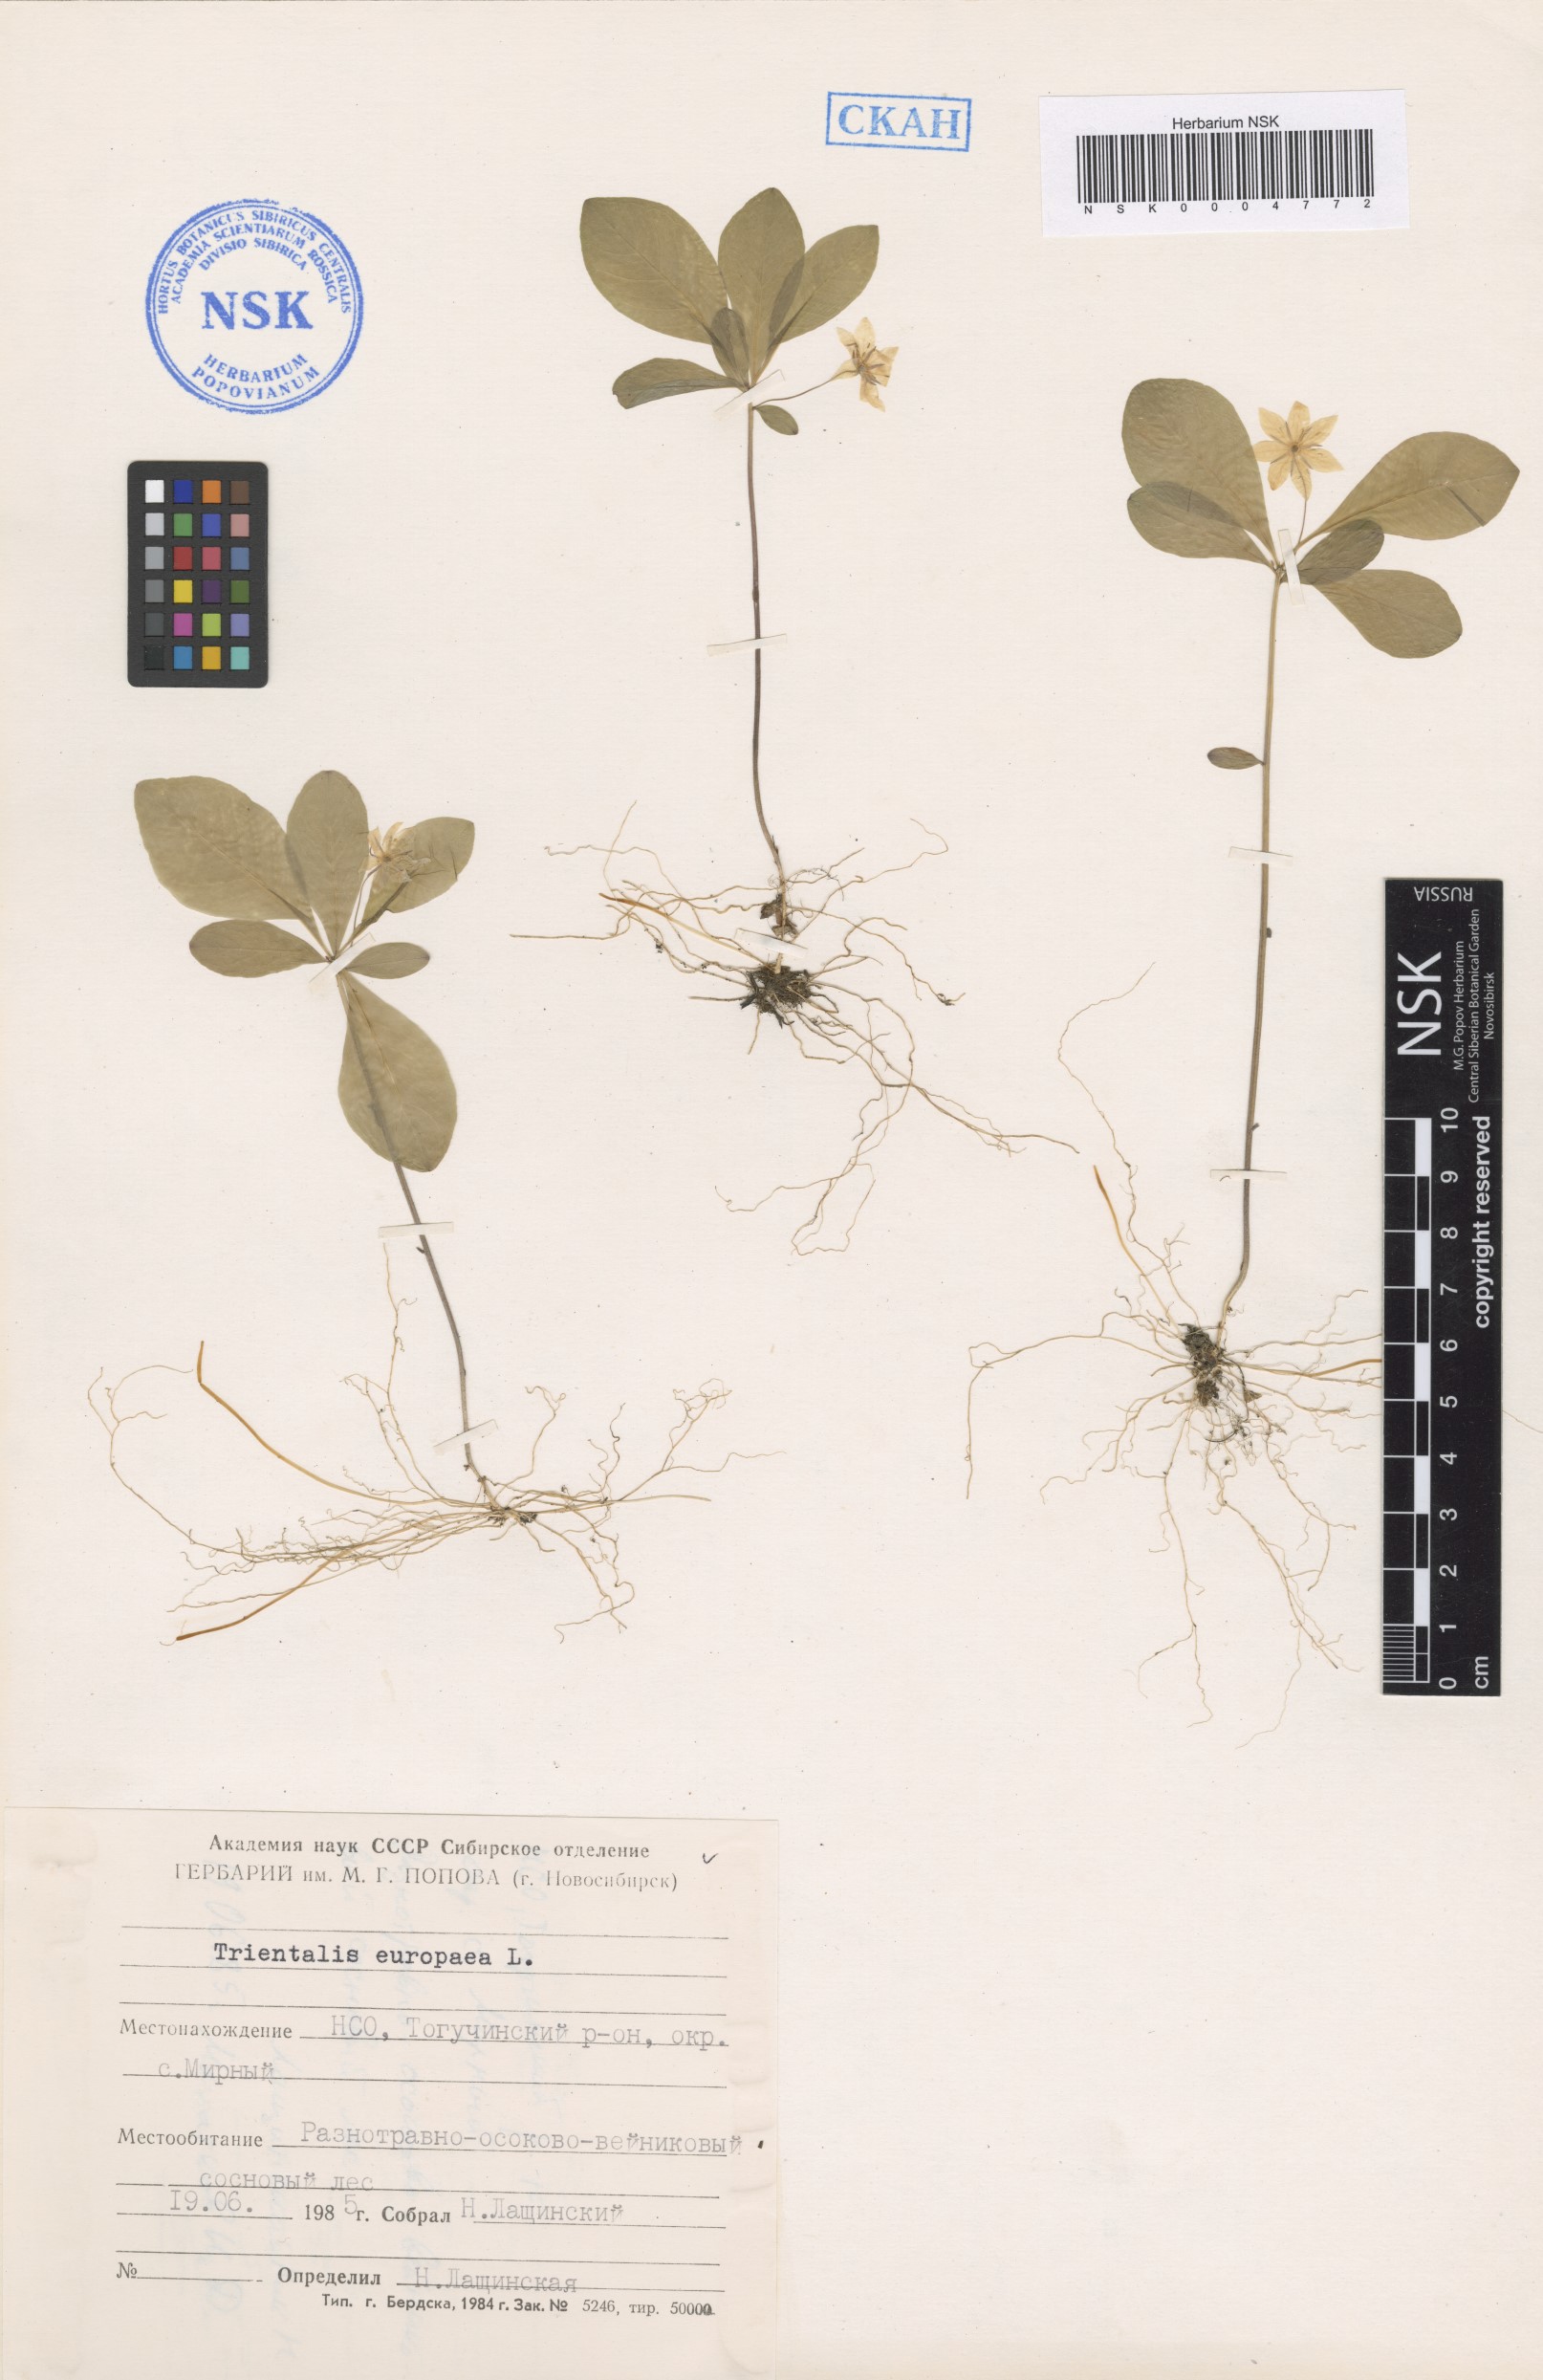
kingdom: Plantae
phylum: Tracheophyta
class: Magnoliopsida
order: Ericales
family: Primulaceae
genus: Lysimachia
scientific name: Lysimachia europaea
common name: Arctic starflower
